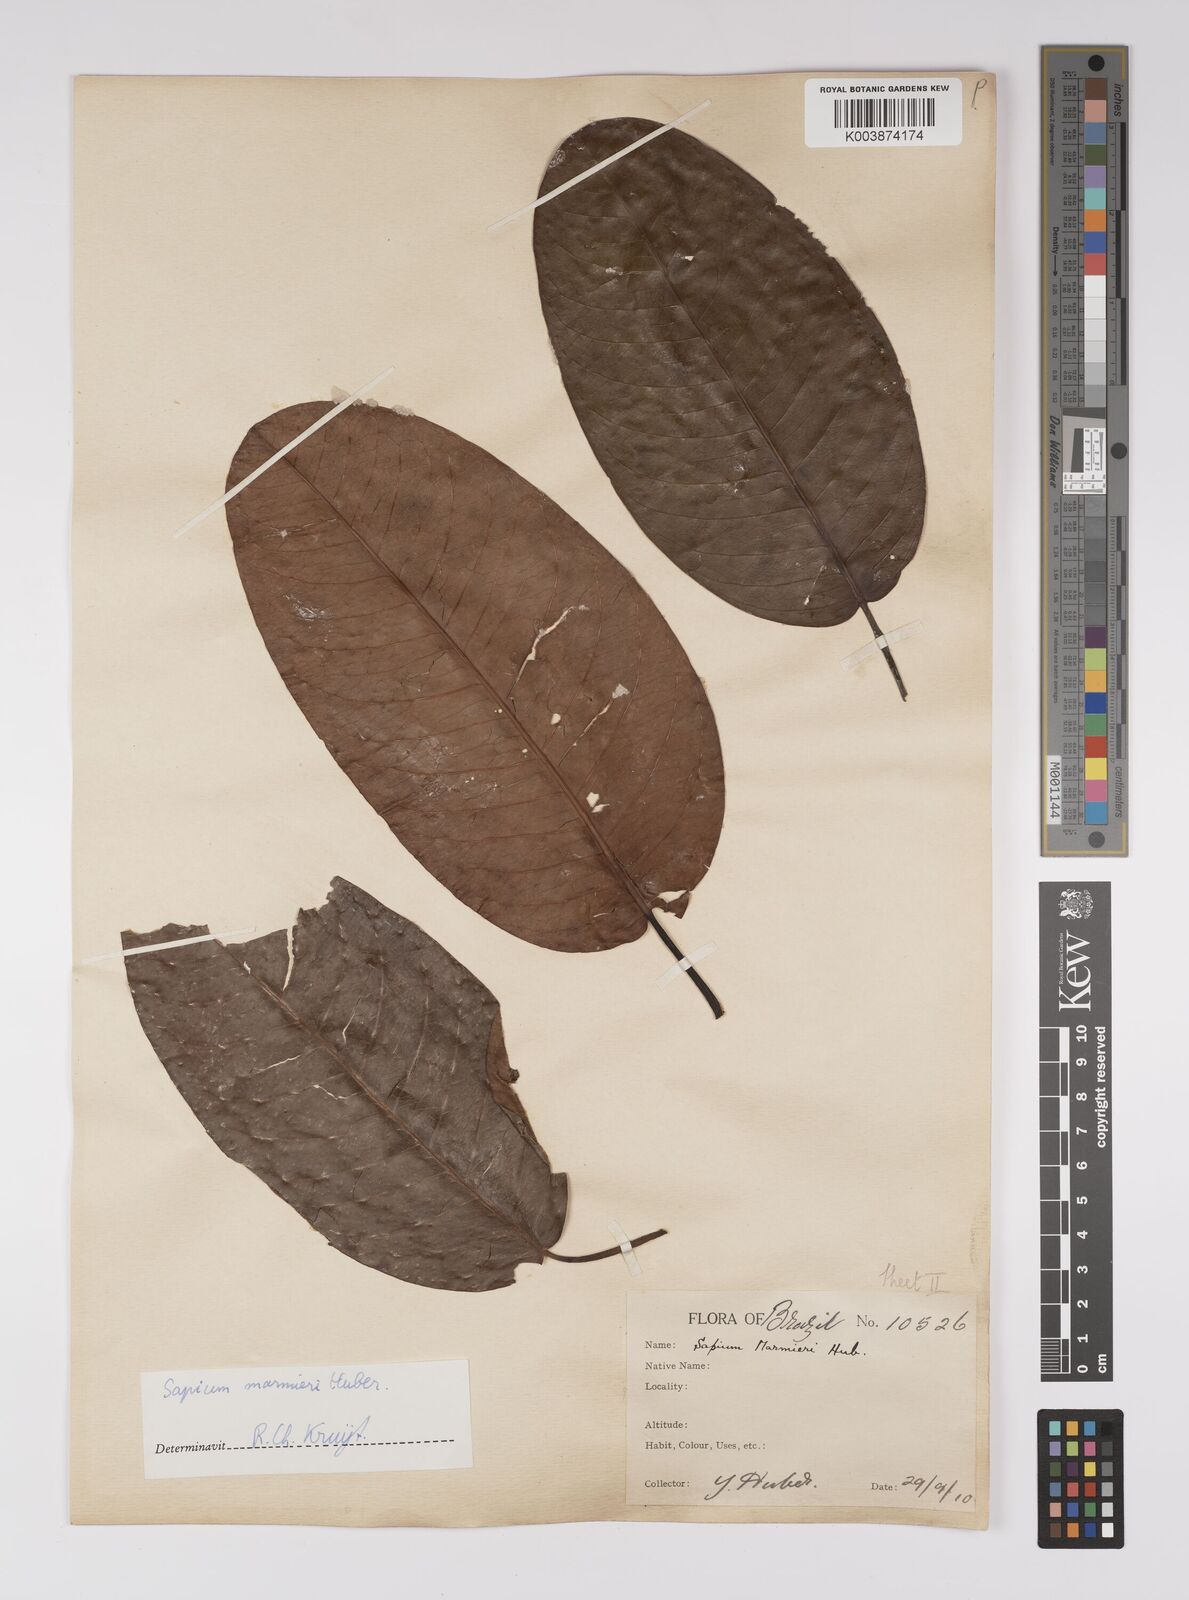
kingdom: Plantae
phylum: Tracheophyta
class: Magnoliopsida
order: Malpighiales
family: Euphorbiaceae
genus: Sapium
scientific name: Sapium marmieri
